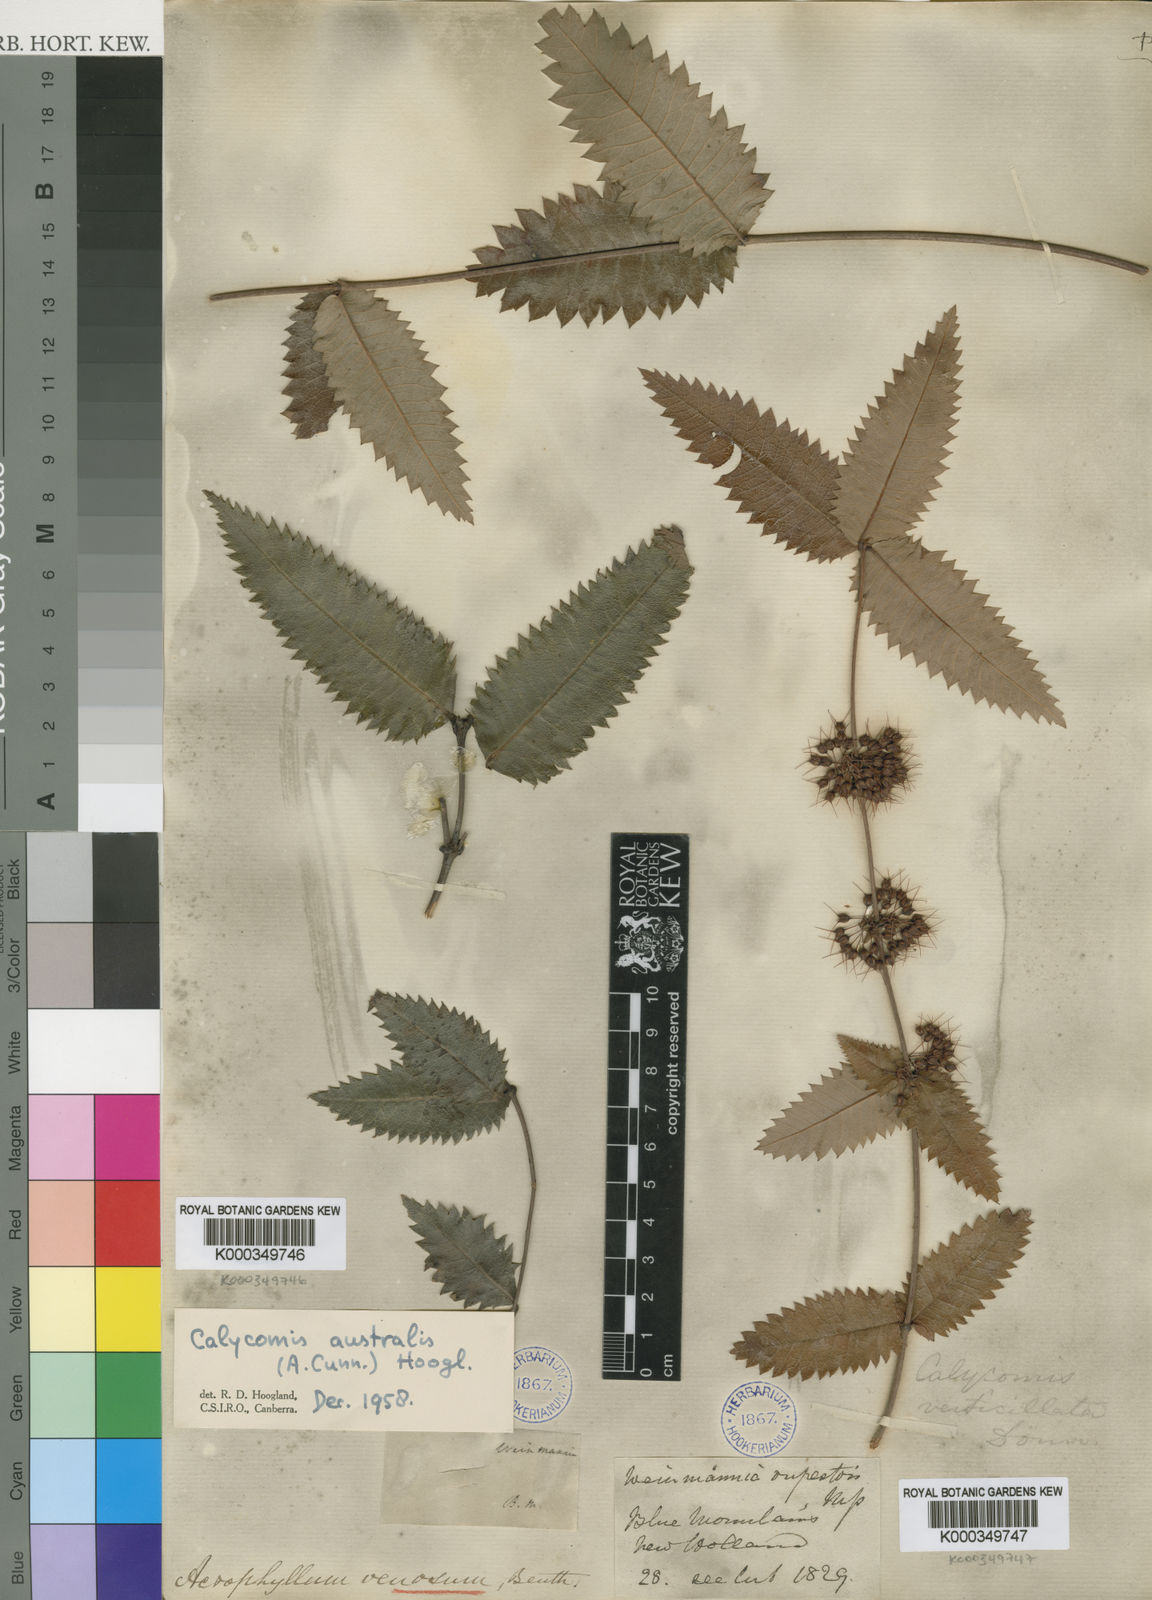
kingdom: Plantae
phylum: Tracheophyta
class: Magnoliopsida
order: Oxalidales
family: Cunoniaceae
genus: Acrophyllum
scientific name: Acrophyllum australe
